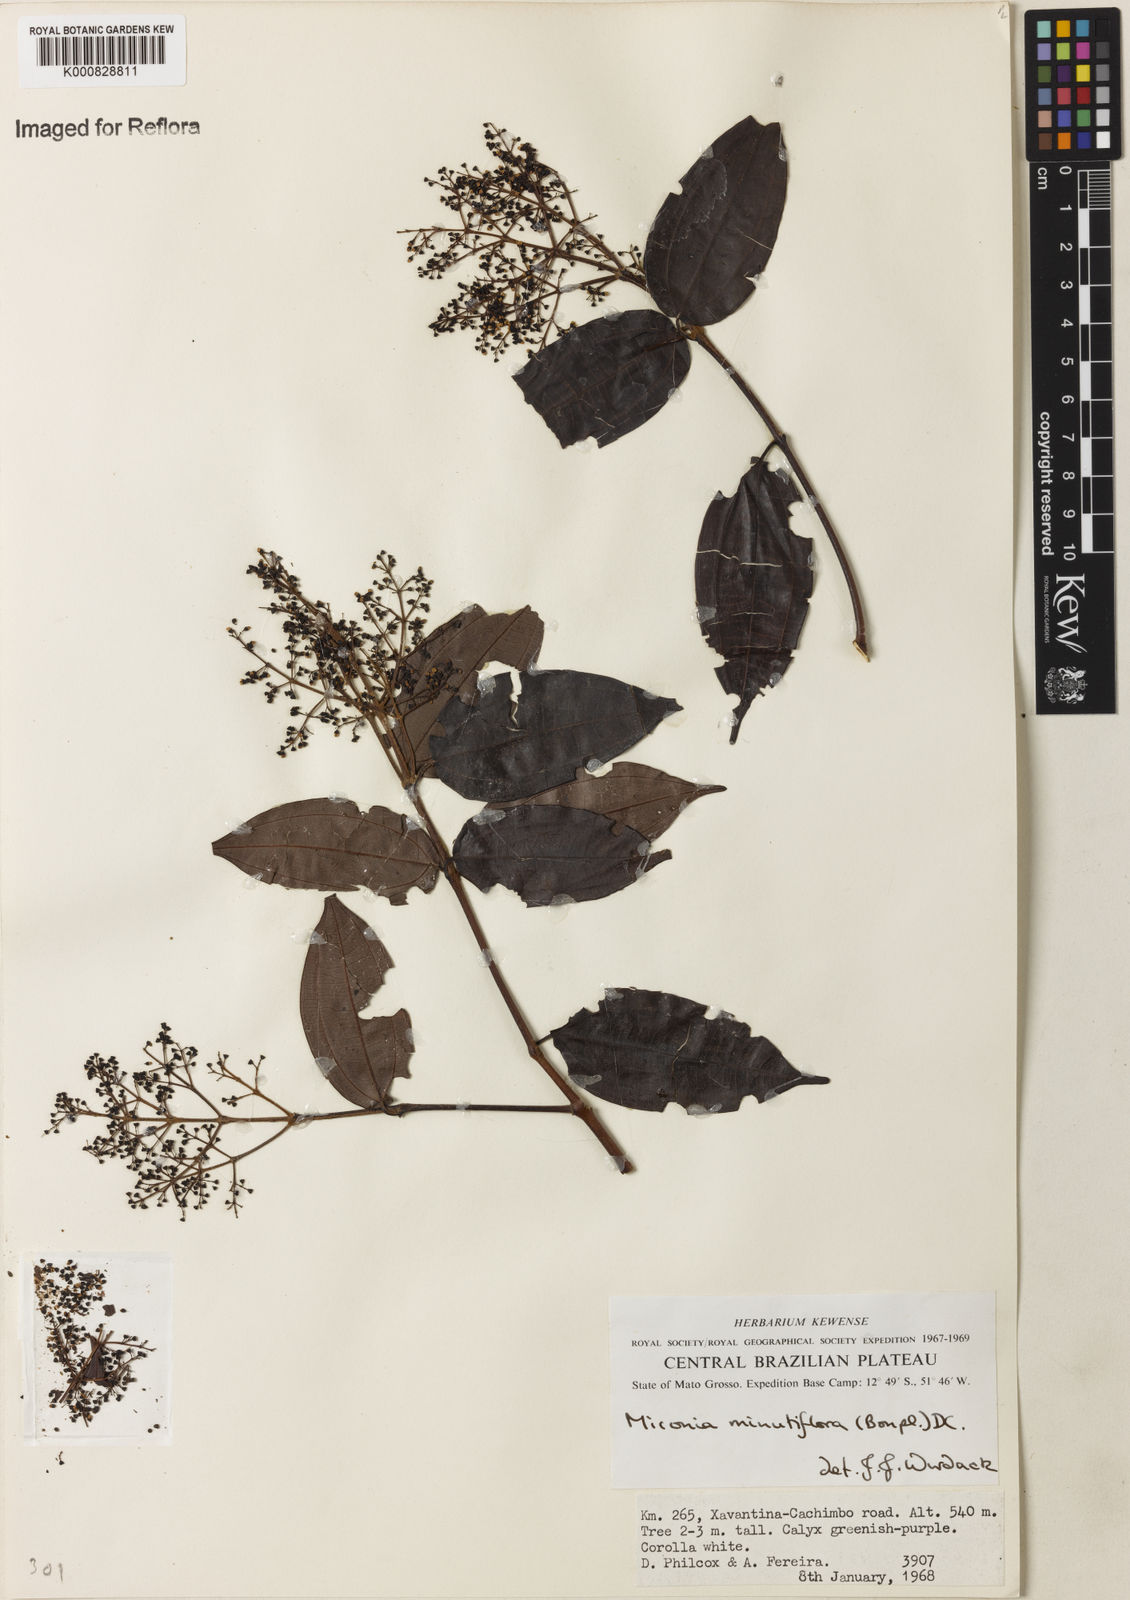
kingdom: Plantae
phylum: Tracheophyta
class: Magnoliopsida
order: Myrtales
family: Melastomataceae
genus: Miconia
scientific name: Miconia minutiflora
